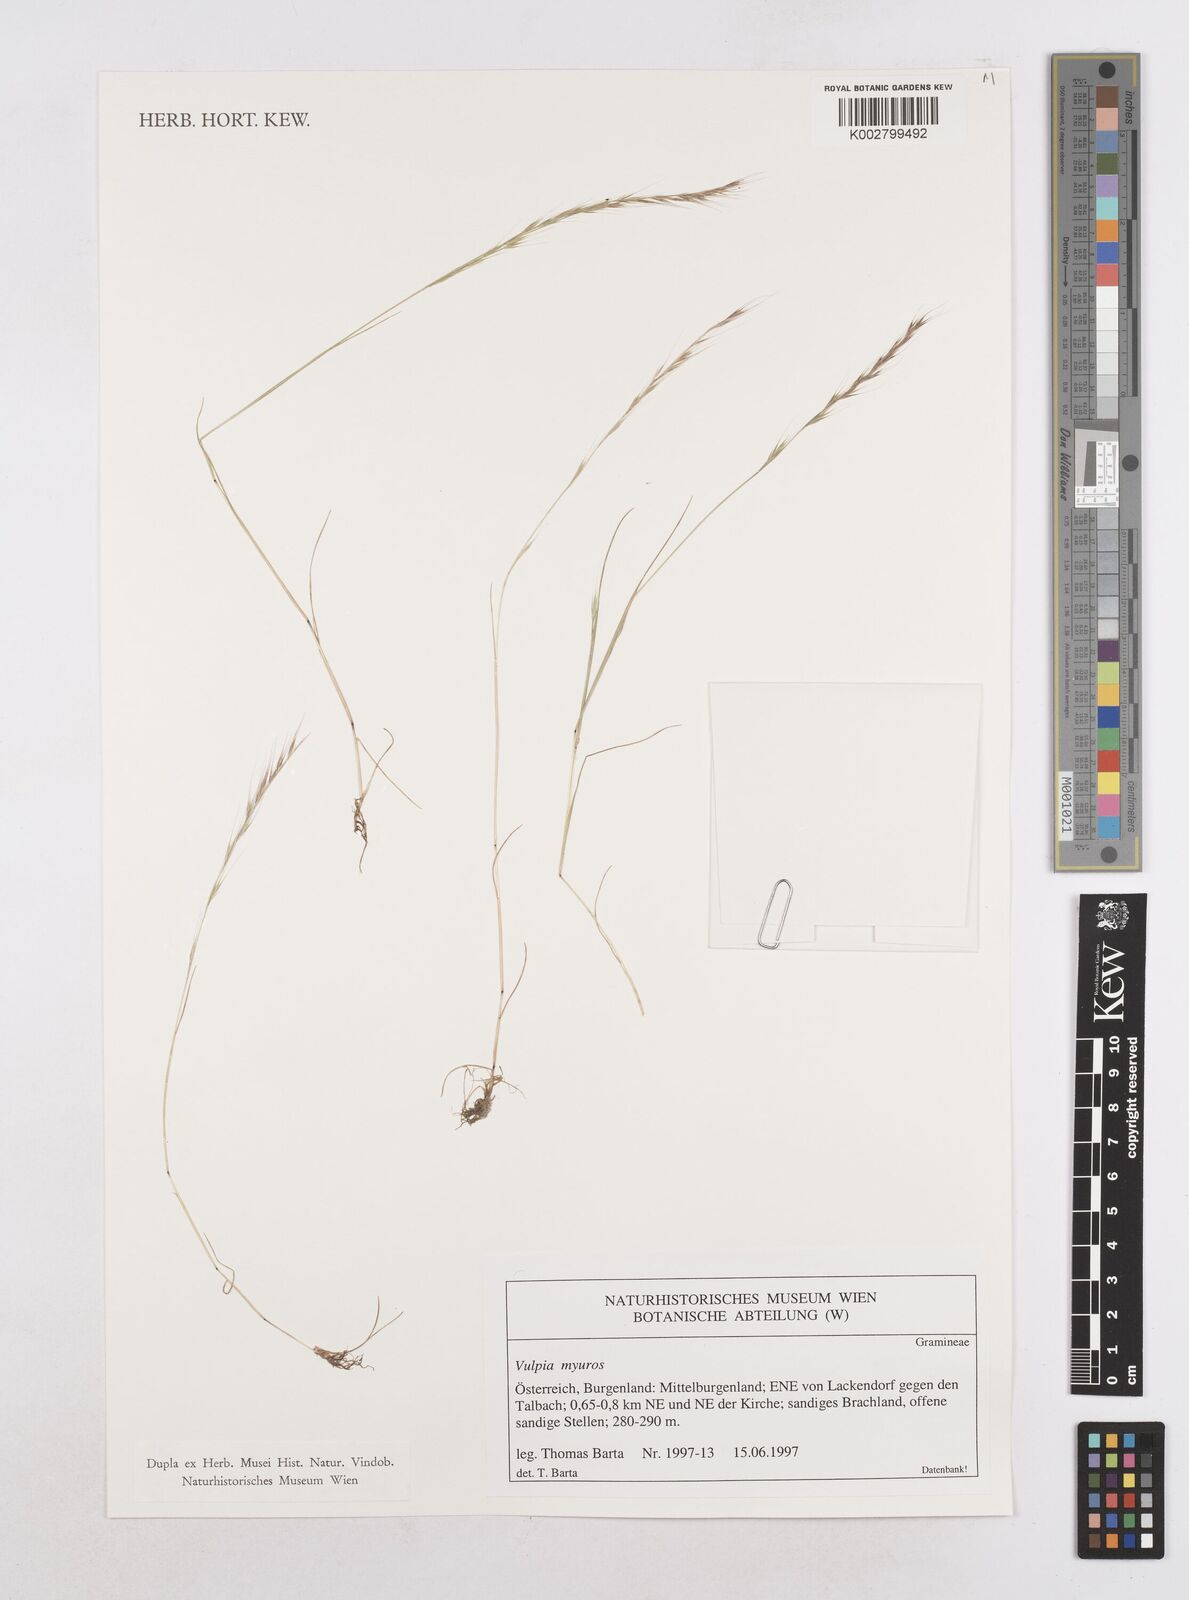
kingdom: Plantae
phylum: Tracheophyta
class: Liliopsida
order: Poales
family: Poaceae
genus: Festuca
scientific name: Festuca myuros
